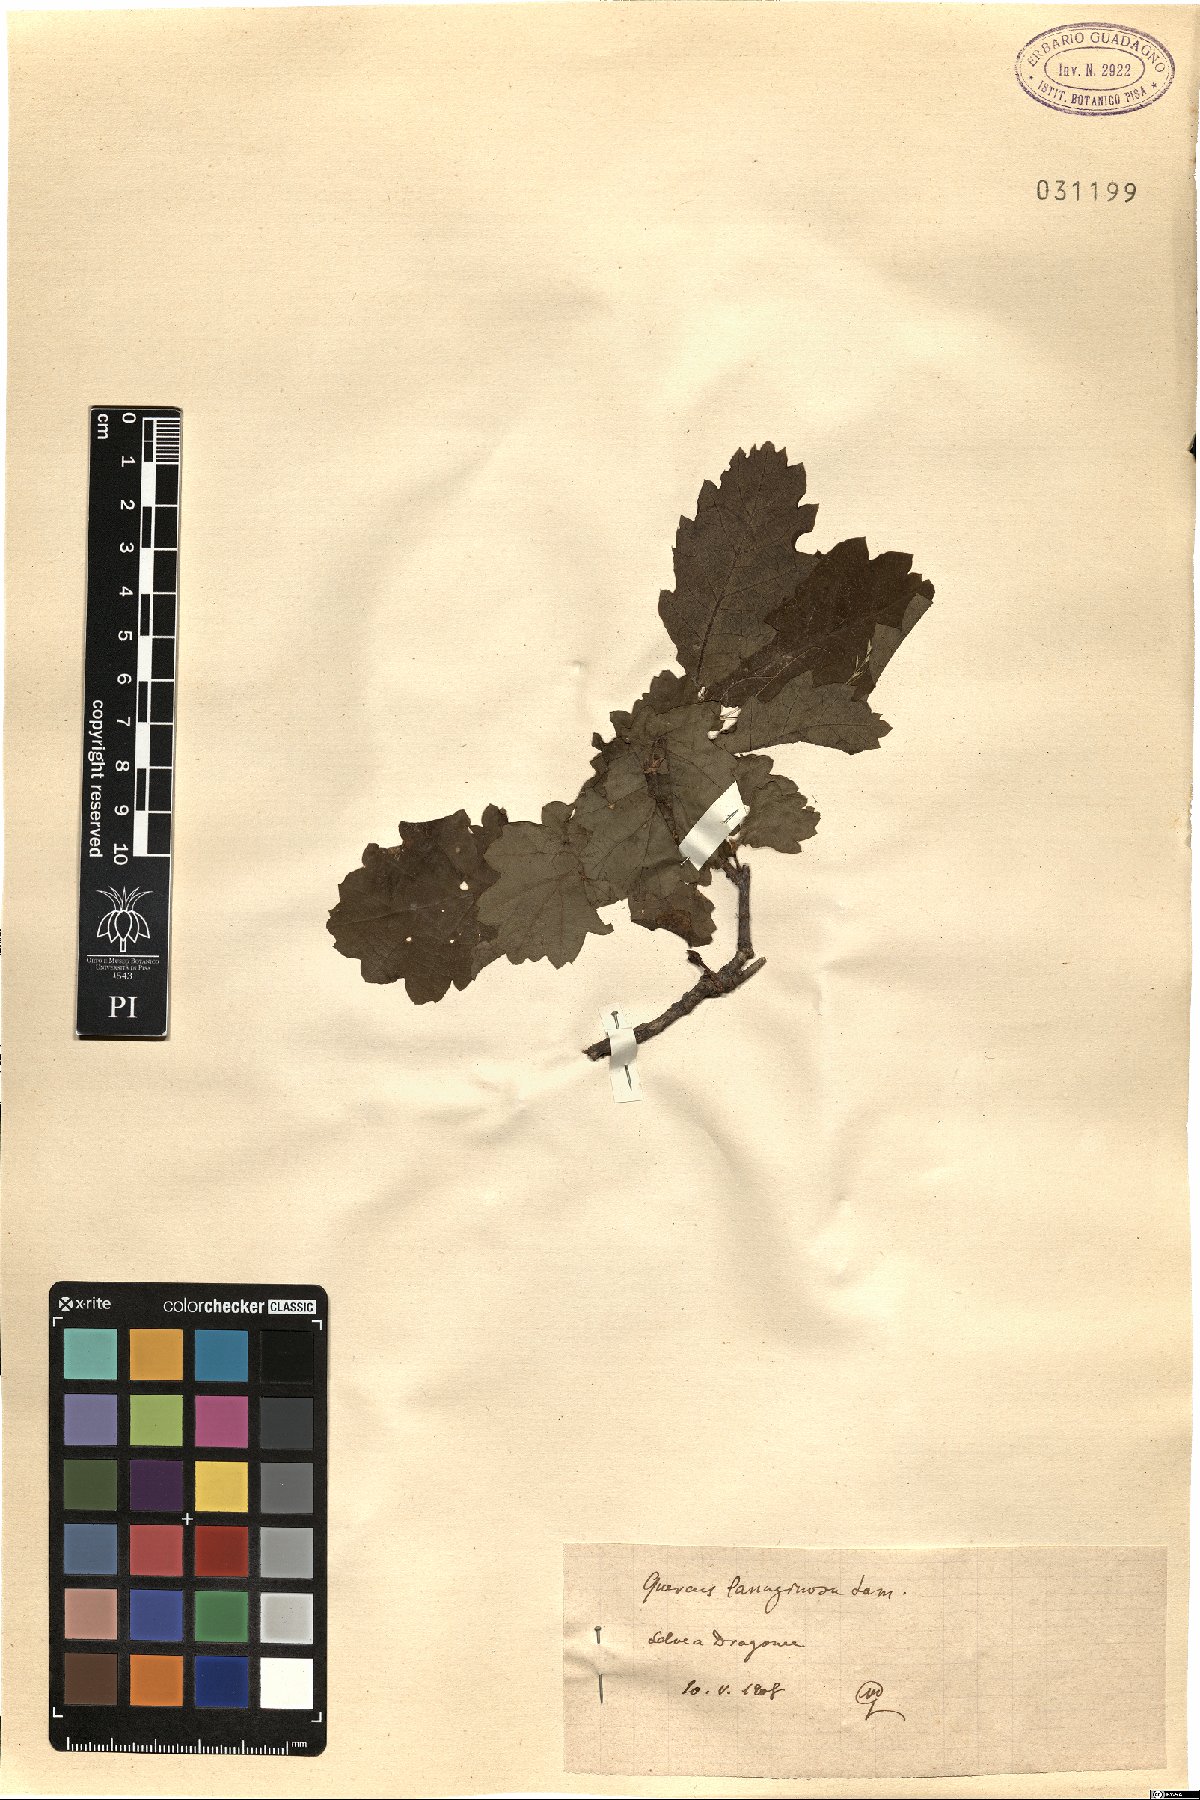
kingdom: Plantae
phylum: Tracheophyta
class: Magnoliopsida
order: Fagales
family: Fagaceae
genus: Quercus
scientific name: Quercus cerris
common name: Turkey oak
